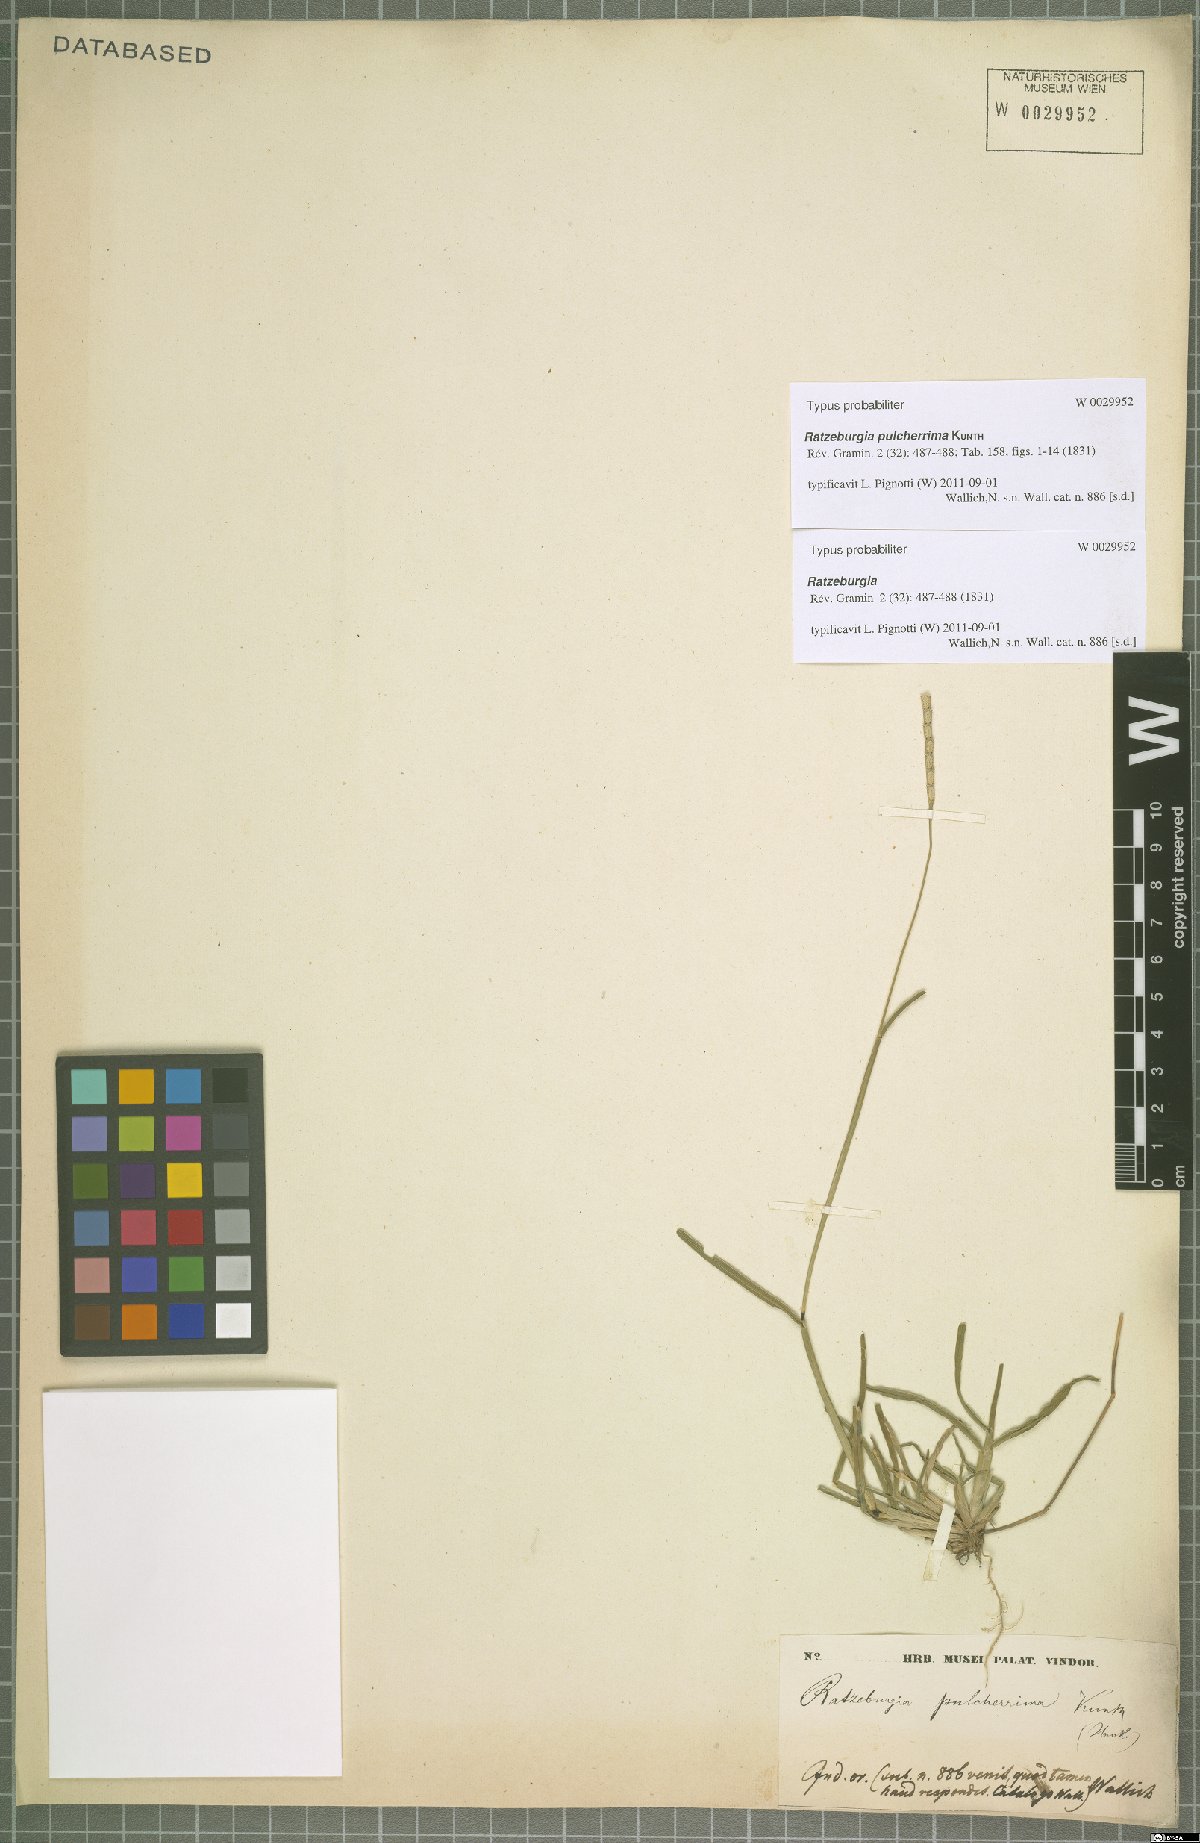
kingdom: Plantae
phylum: Tracheophyta
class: Liliopsida
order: Poales
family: Poaceae
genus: Ratzeburgia
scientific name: Ratzeburgia pulcherrima
